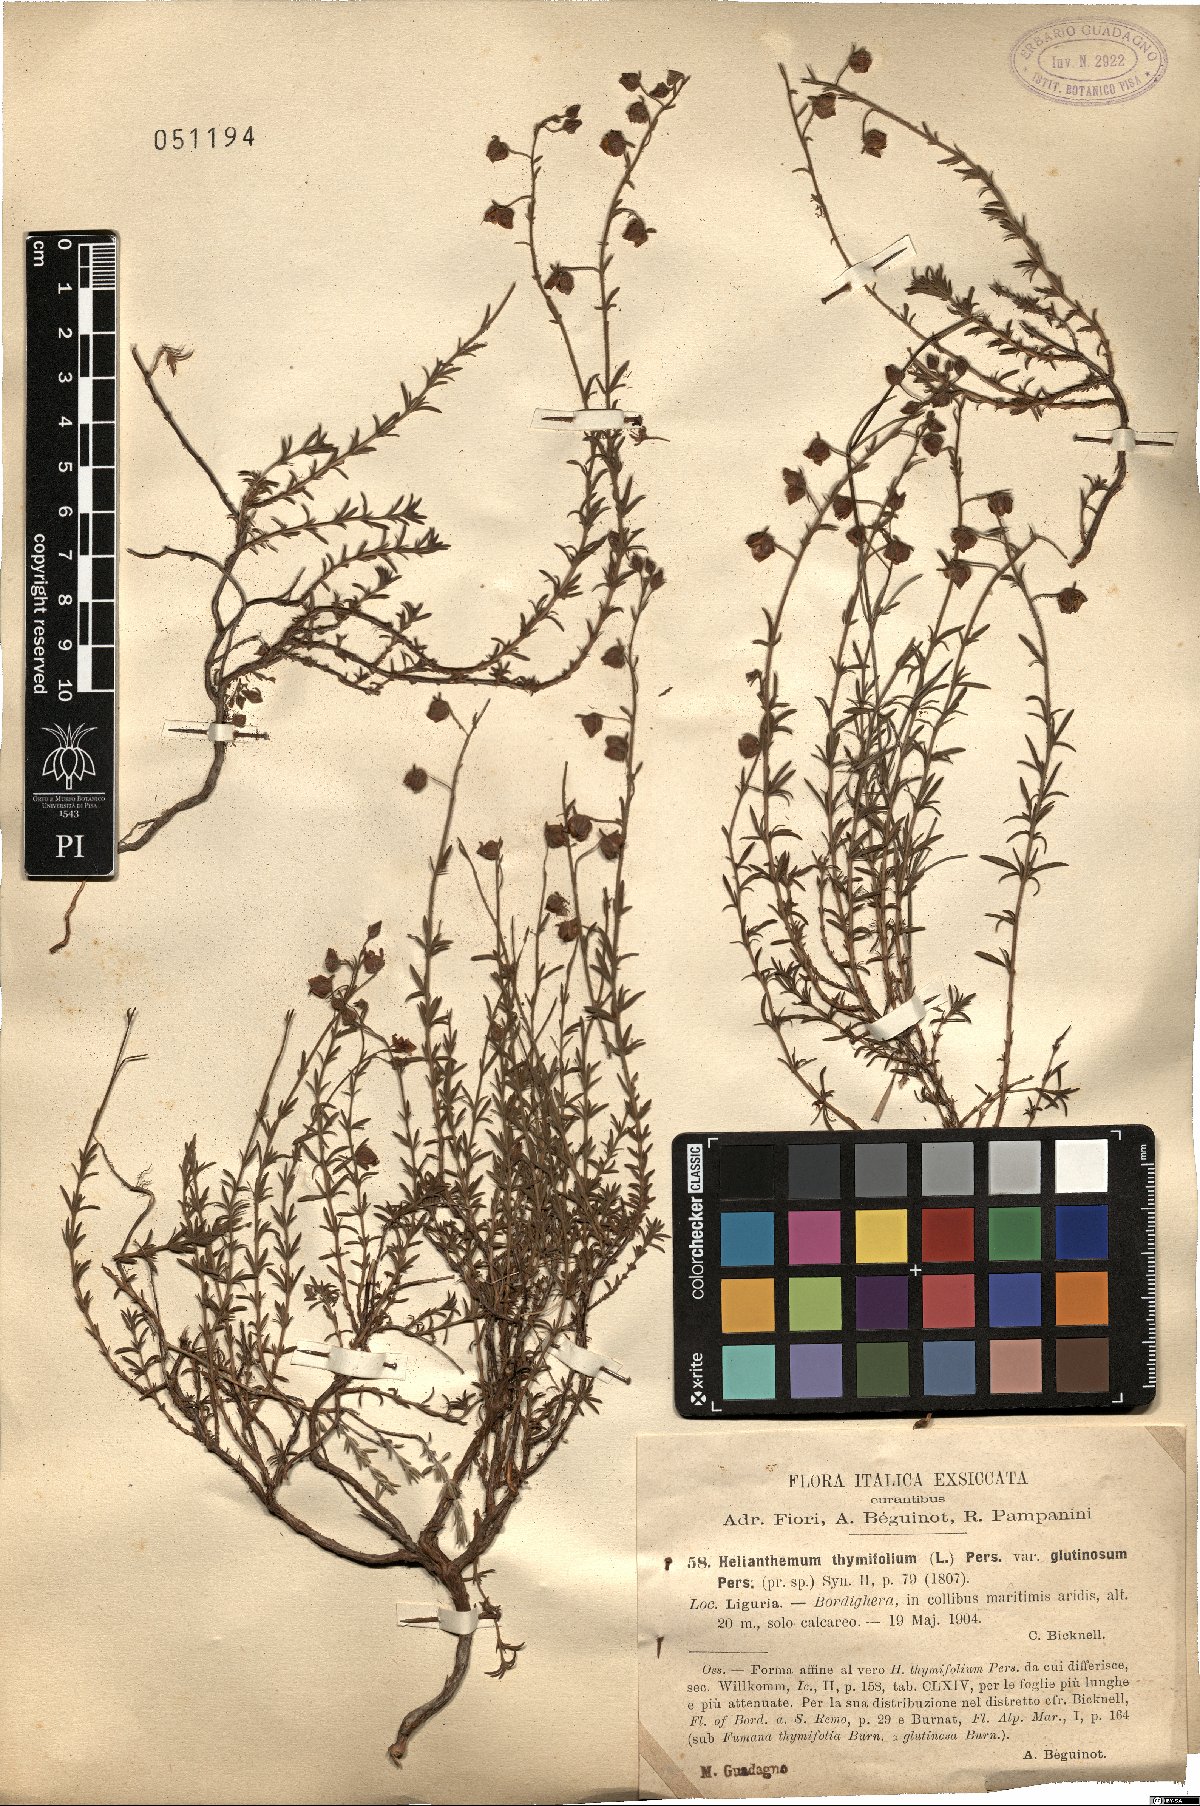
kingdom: Plantae
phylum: Tracheophyta
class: Magnoliopsida
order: Malvales
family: Cistaceae
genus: Fumana
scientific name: Fumana thymifolia
